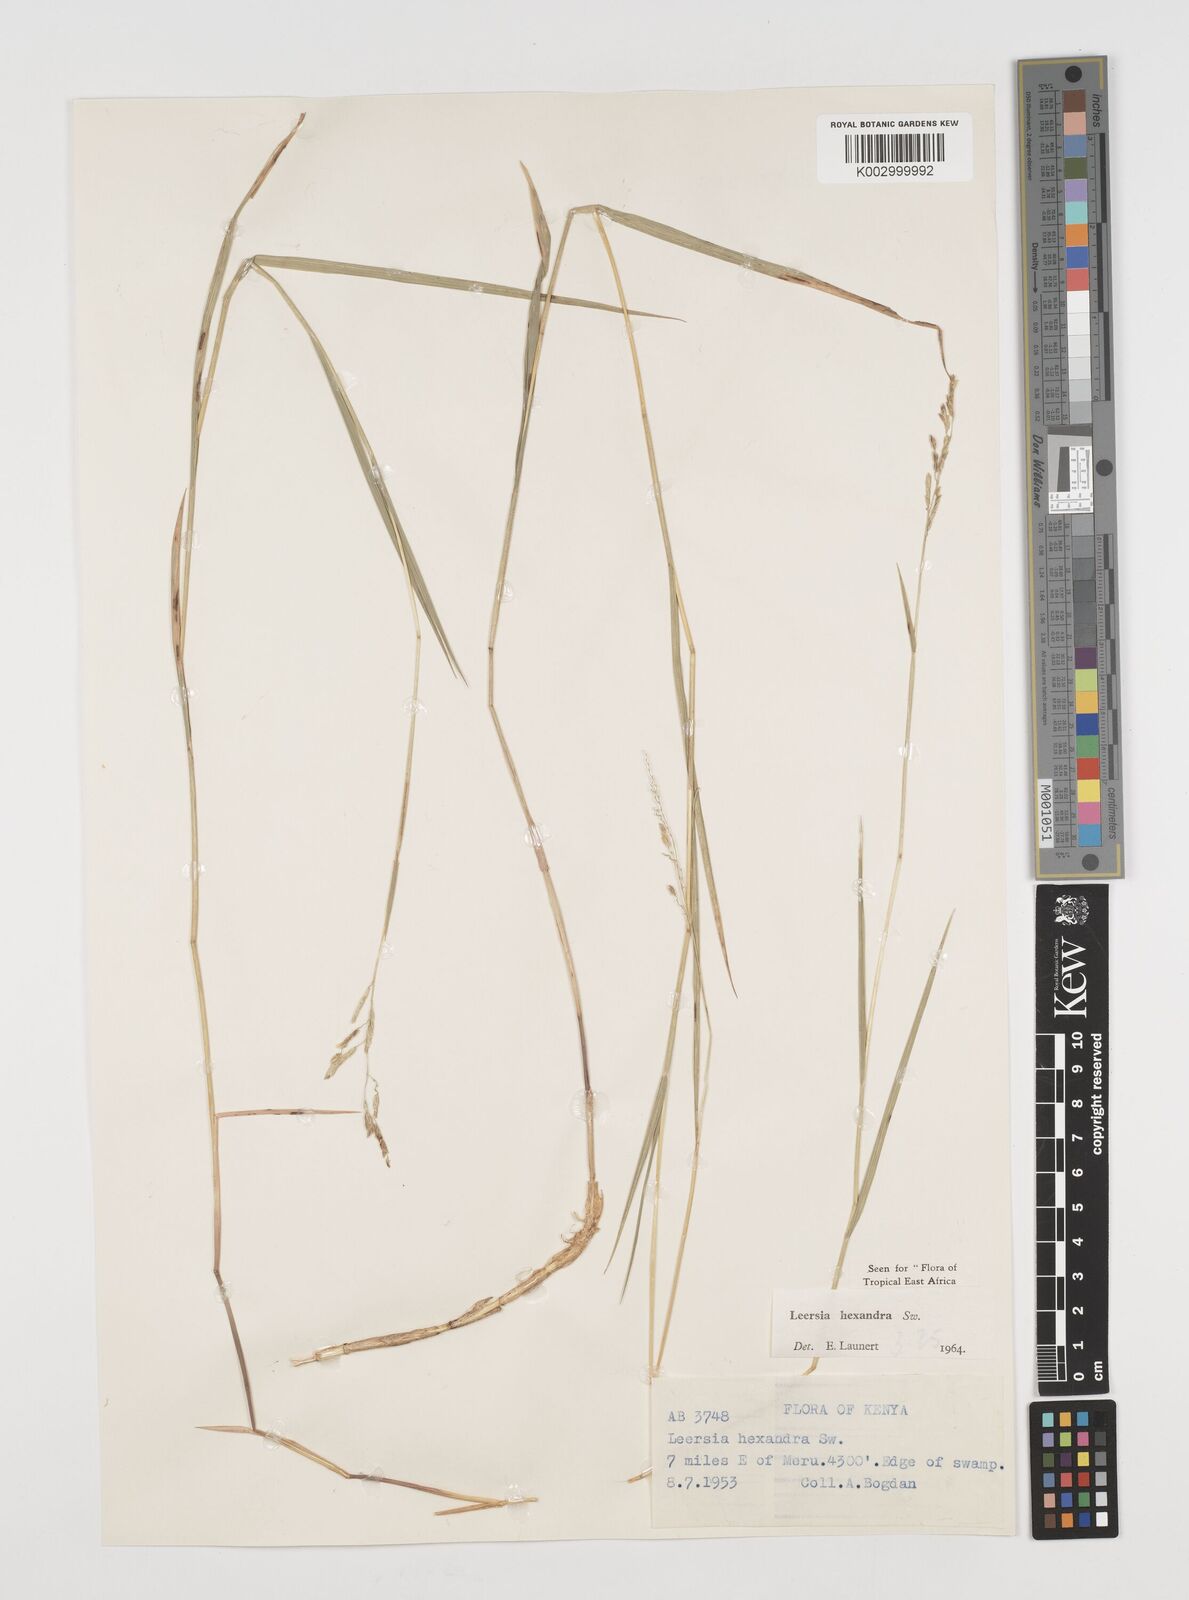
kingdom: Plantae
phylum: Tracheophyta
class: Liliopsida
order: Poales
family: Poaceae
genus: Leersia
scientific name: Leersia hexandra
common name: Southern cut grass
